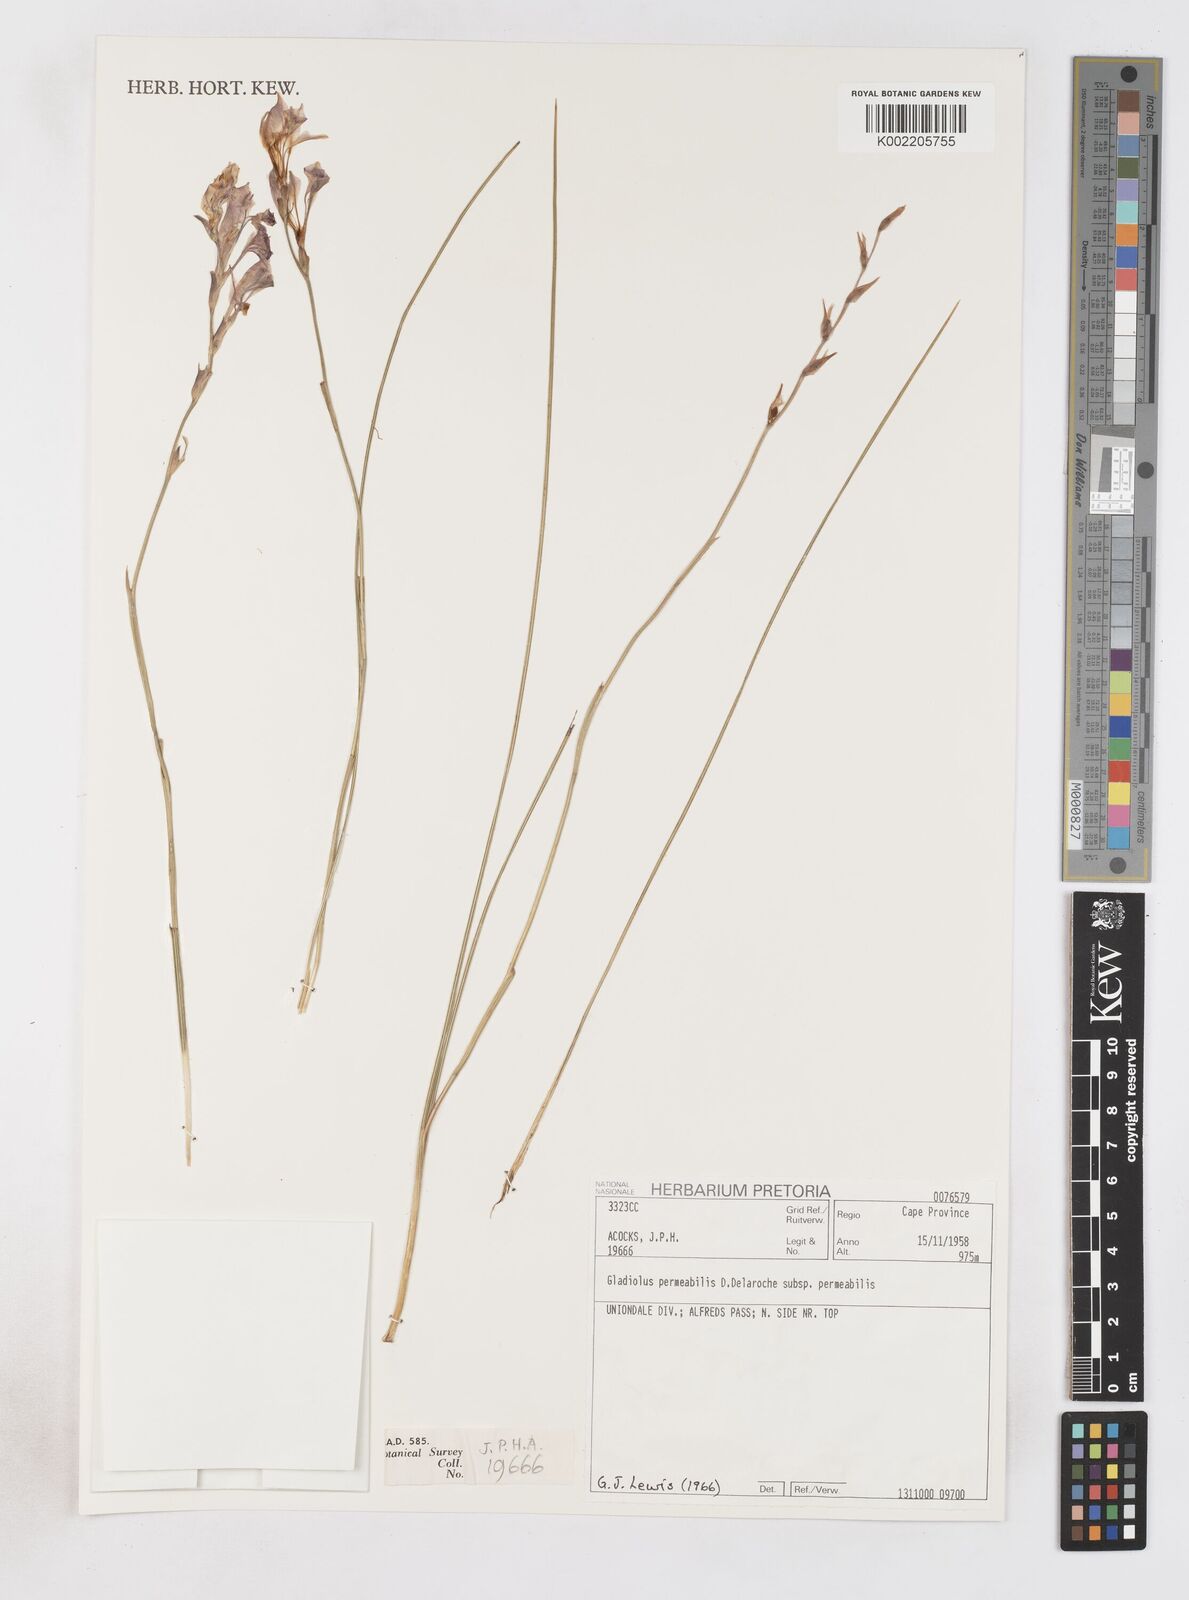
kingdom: Plantae
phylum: Tracheophyta
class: Liliopsida
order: Asparagales
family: Iridaceae
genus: Gladiolus
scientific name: Gladiolus wilsonii
